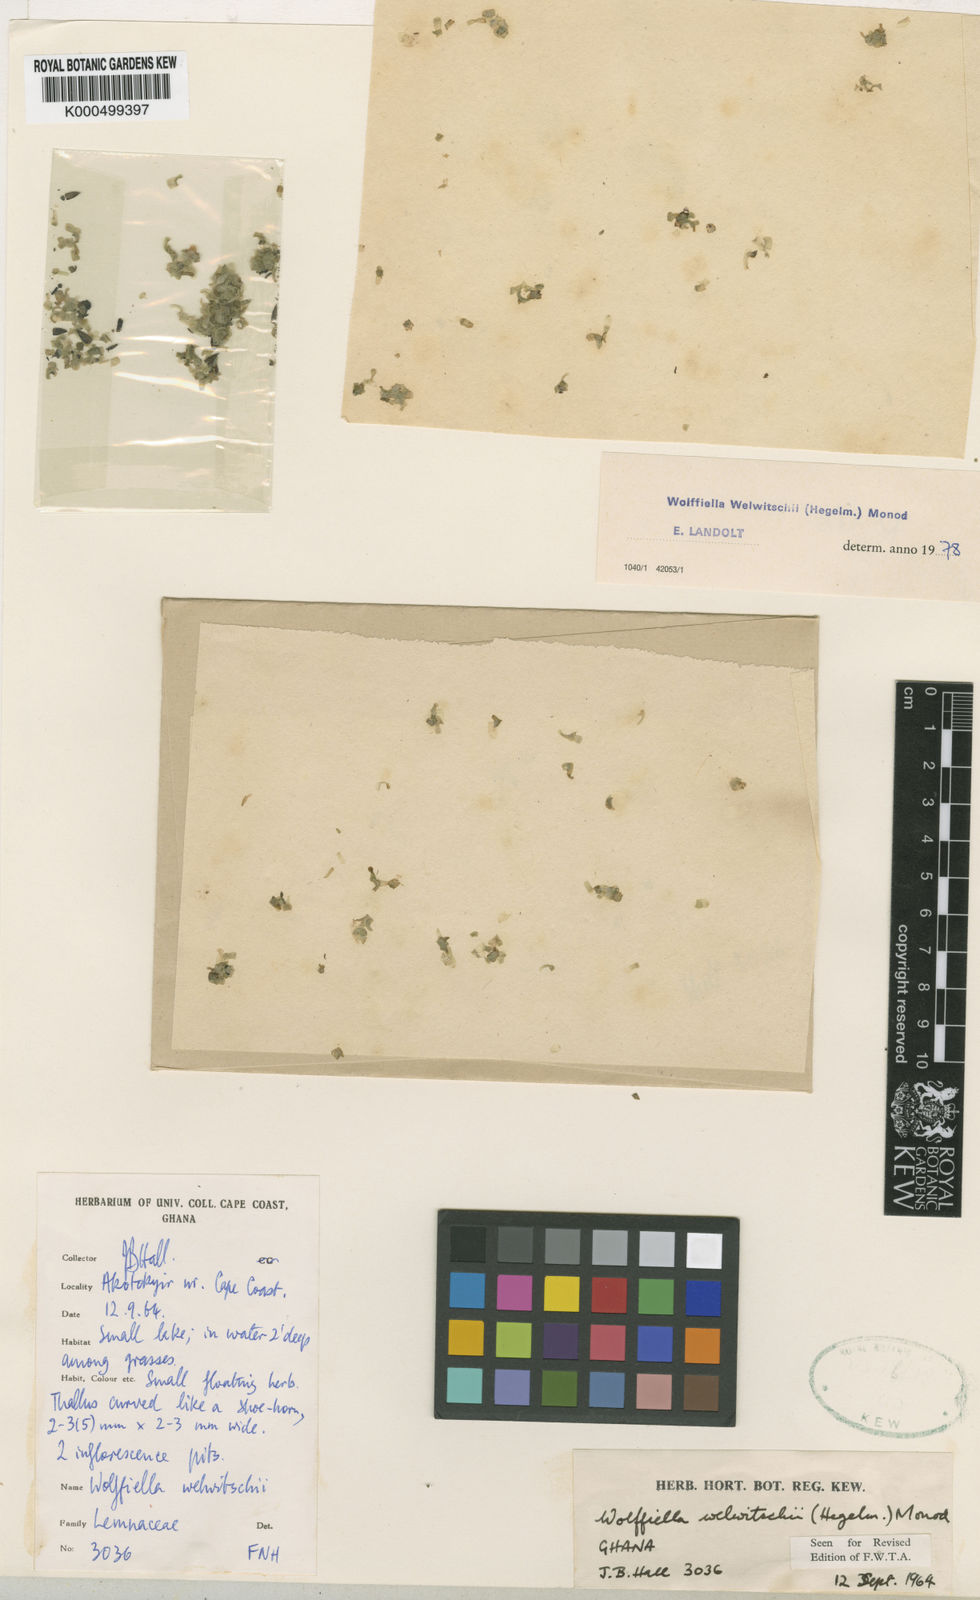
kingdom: Plantae
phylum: Tracheophyta
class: Liliopsida
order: Alismatales
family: Araceae
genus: Wolffiella
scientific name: Wolffiella welwitschii
